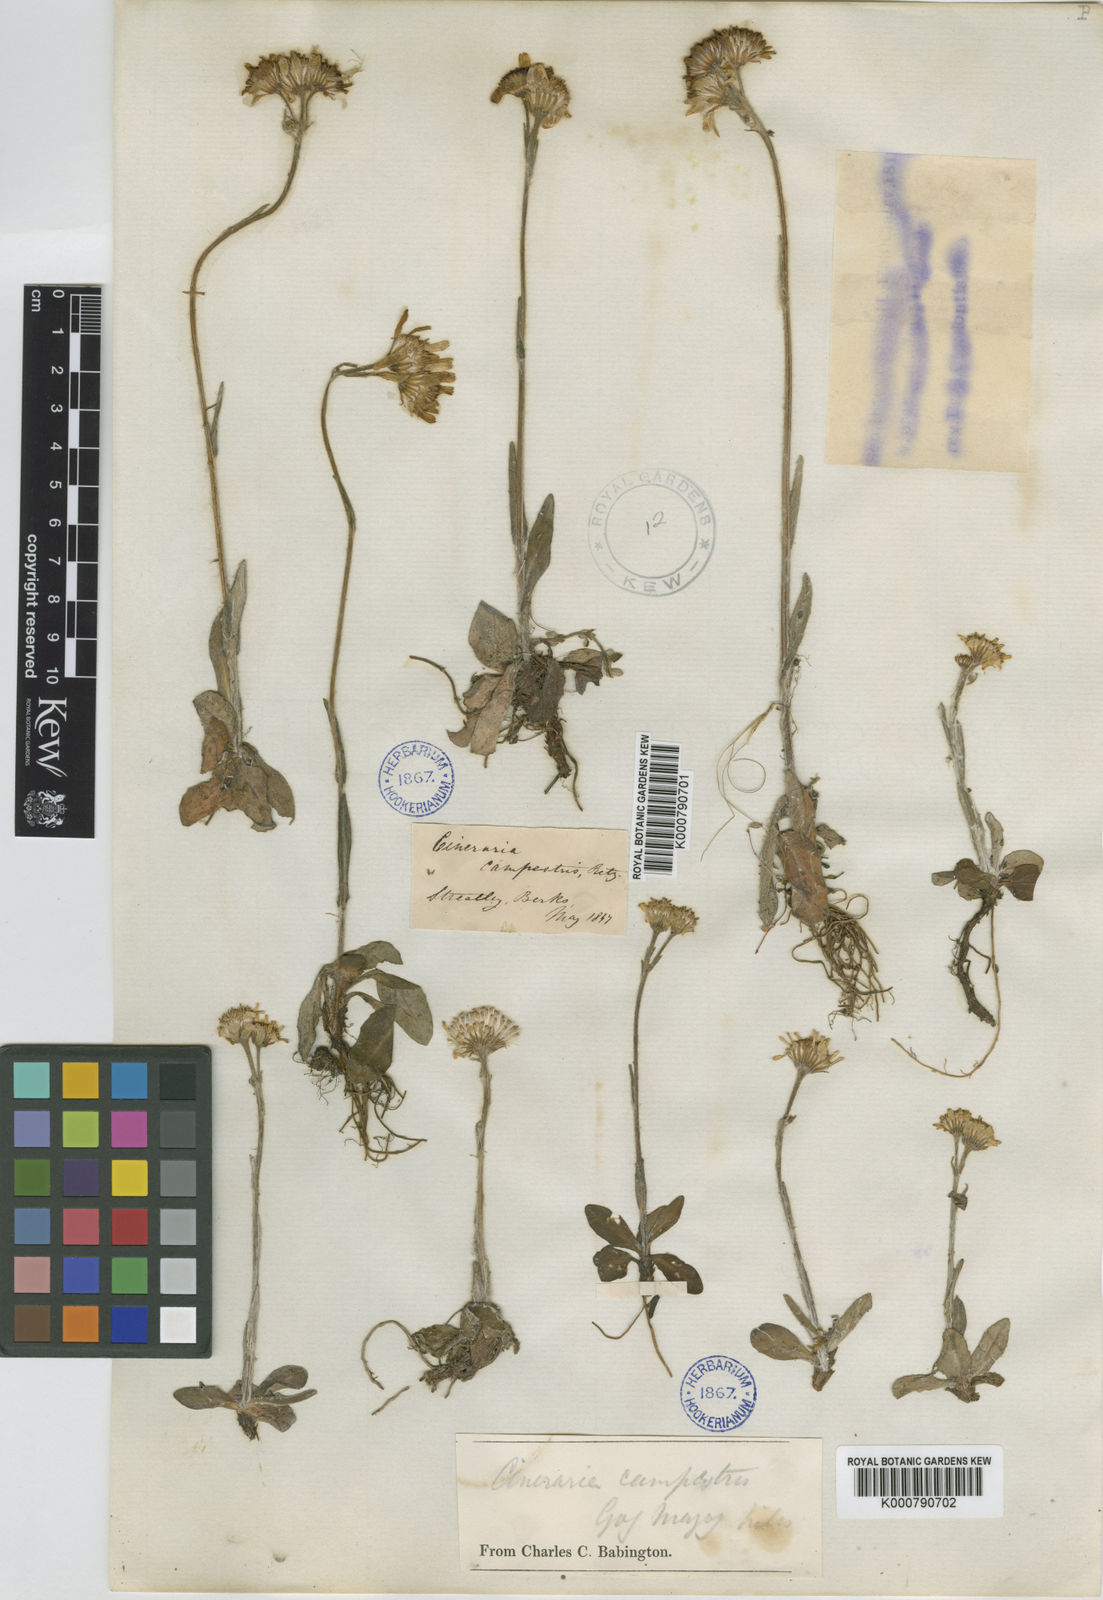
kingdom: Plantae
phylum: Tracheophyta
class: Magnoliopsida
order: Asterales
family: Asteraceae
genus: Tephroseris
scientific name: Tephroseris integrifolia
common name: Field fleawort
